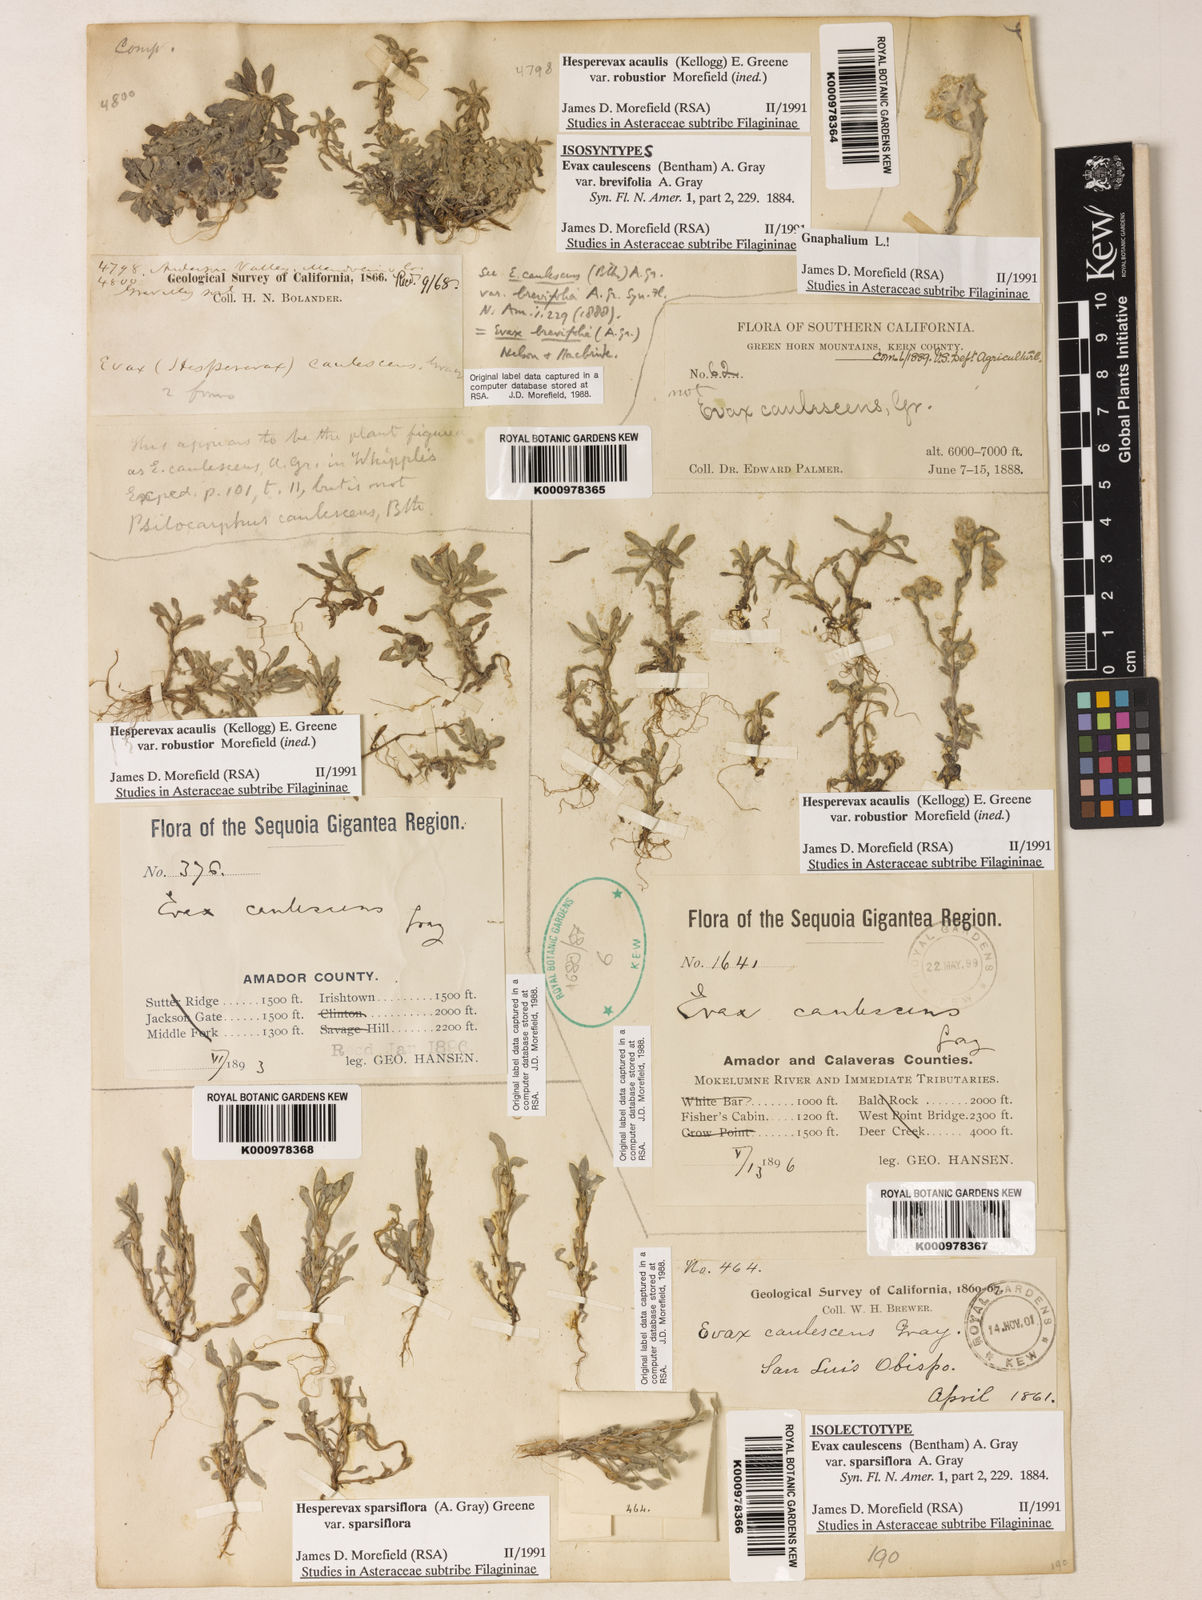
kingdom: Plantae
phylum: Tracheophyta
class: Magnoliopsida
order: Asterales
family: Asteraceae
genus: Hesperevax
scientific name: Hesperevax sparsiflora
